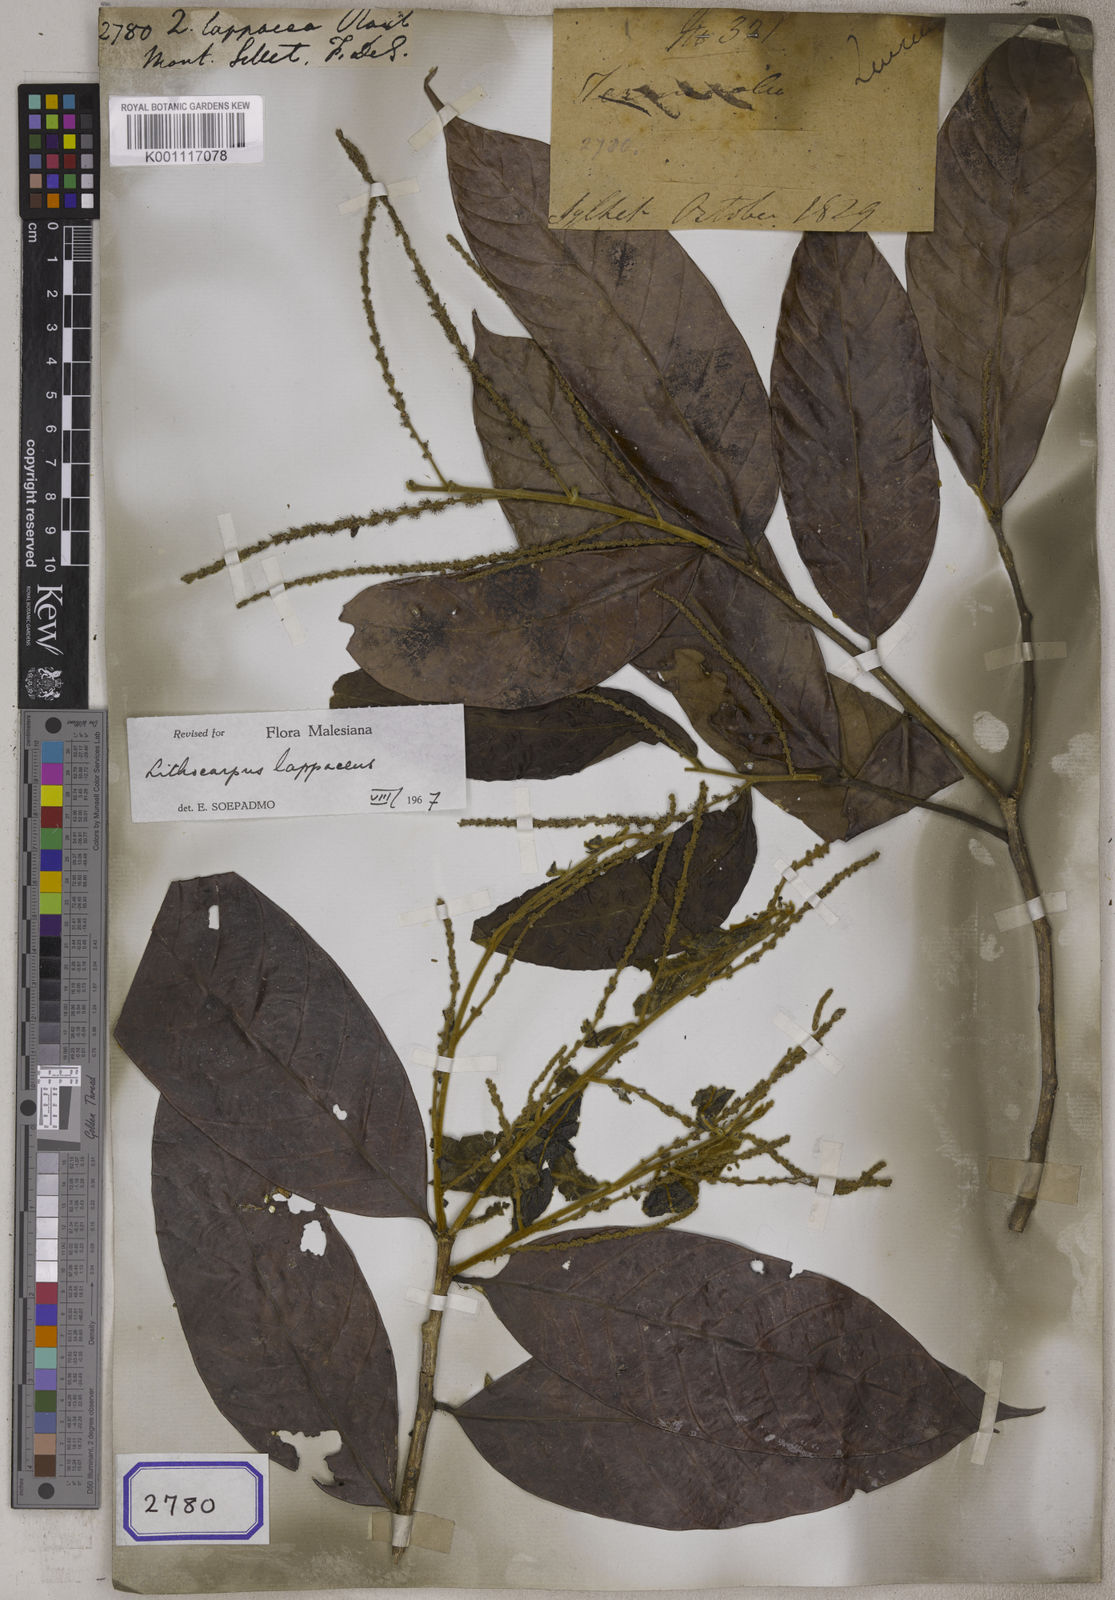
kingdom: Plantae
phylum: Tracheophyta
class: Magnoliopsida
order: Fagales
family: Fagaceae
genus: Lithocarpus
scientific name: Lithocarpus lappaceus
